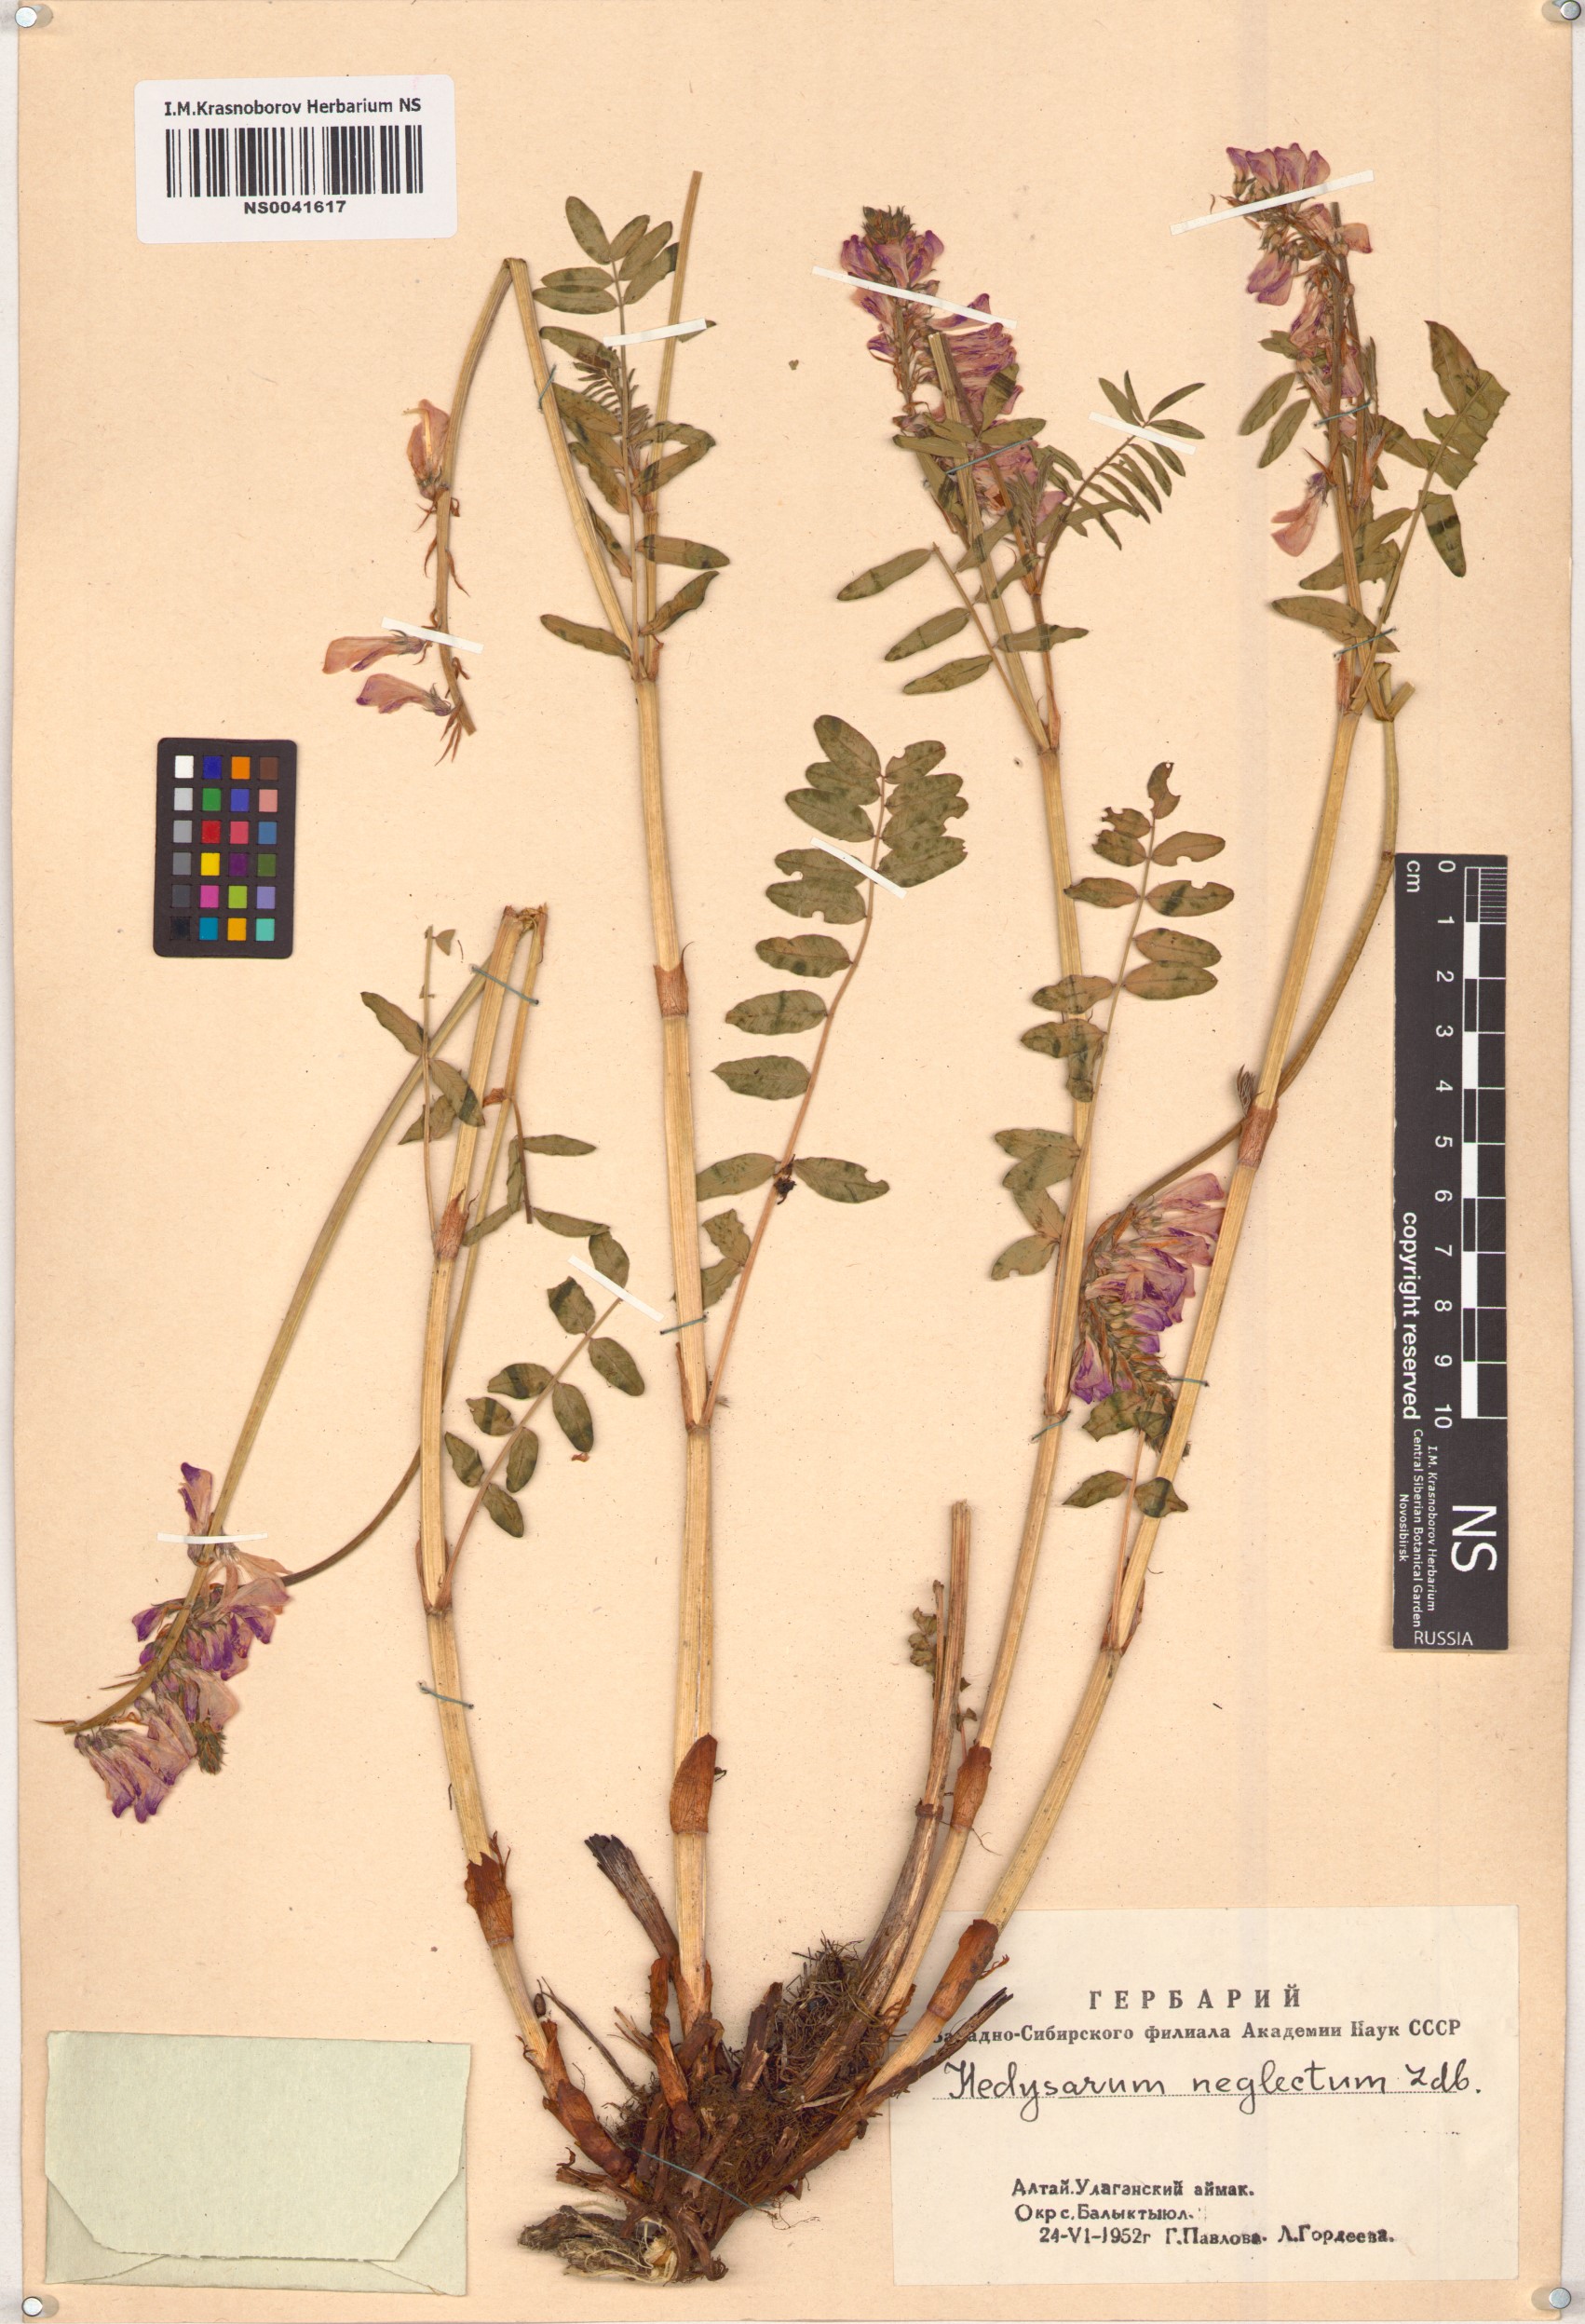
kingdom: Plantae
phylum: Tracheophyta
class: Magnoliopsida
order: Fabales
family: Fabaceae
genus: Hedysarum
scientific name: Hedysarum neglectum
